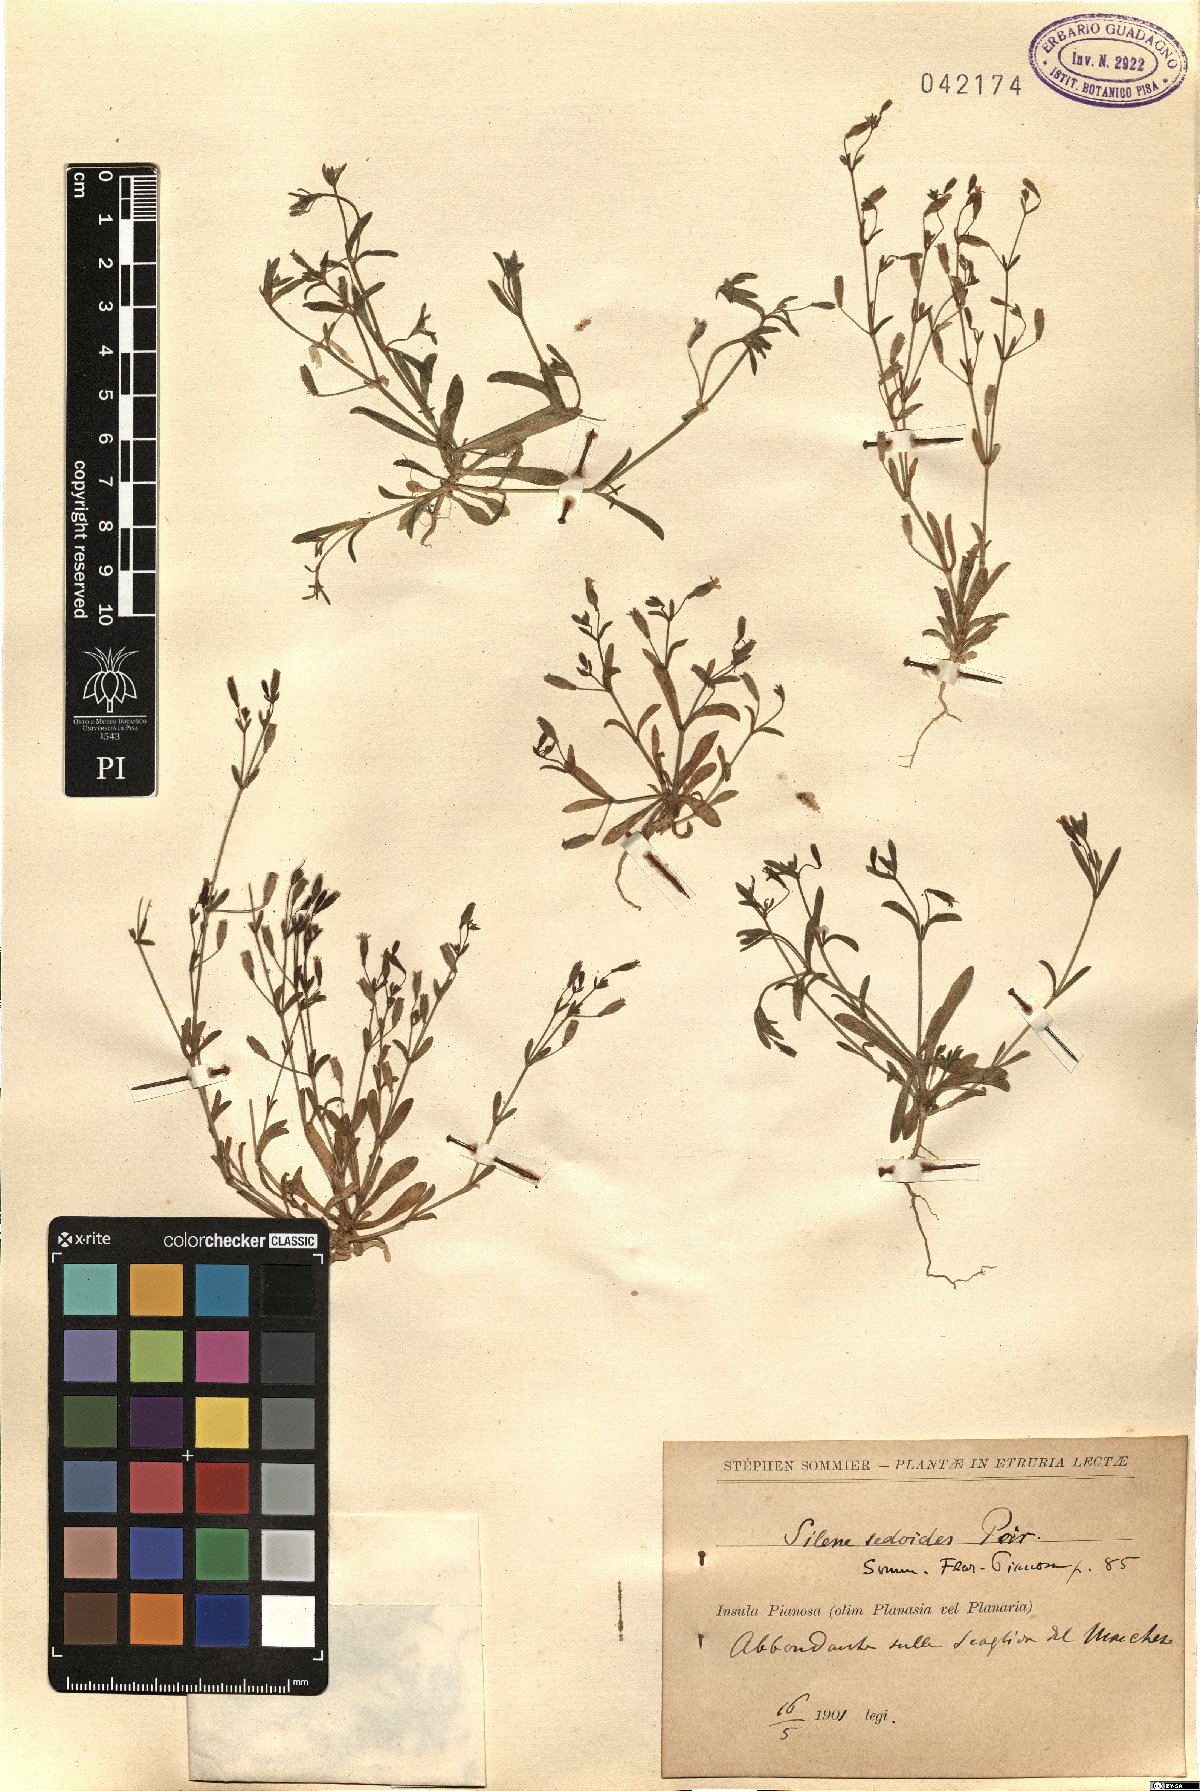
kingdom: Plantae
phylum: Tracheophyta
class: Magnoliopsida
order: Caryophyllales
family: Caryophyllaceae
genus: Silene
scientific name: Silene sedoides
